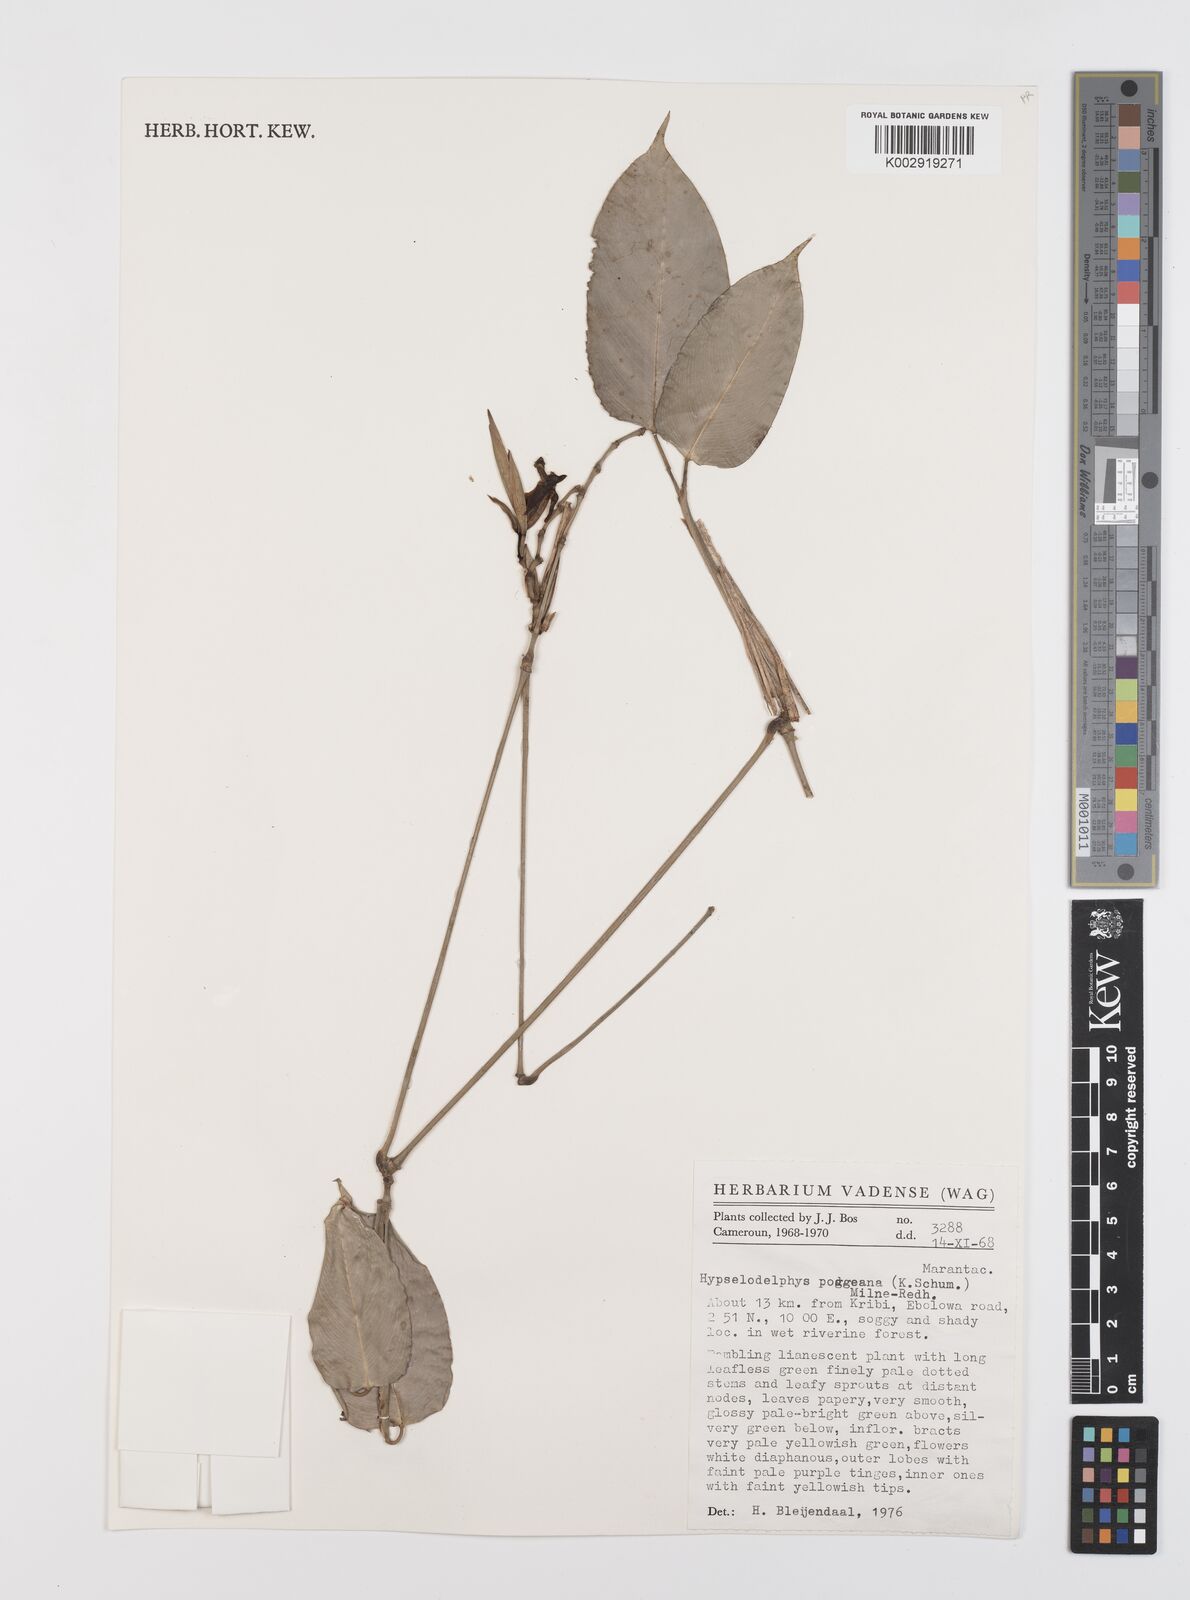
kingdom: Plantae
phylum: Tracheophyta
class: Liliopsida
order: Zingiberales
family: Marantaceae
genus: Hypselodelphys
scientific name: Hypselodelphys poggeana
